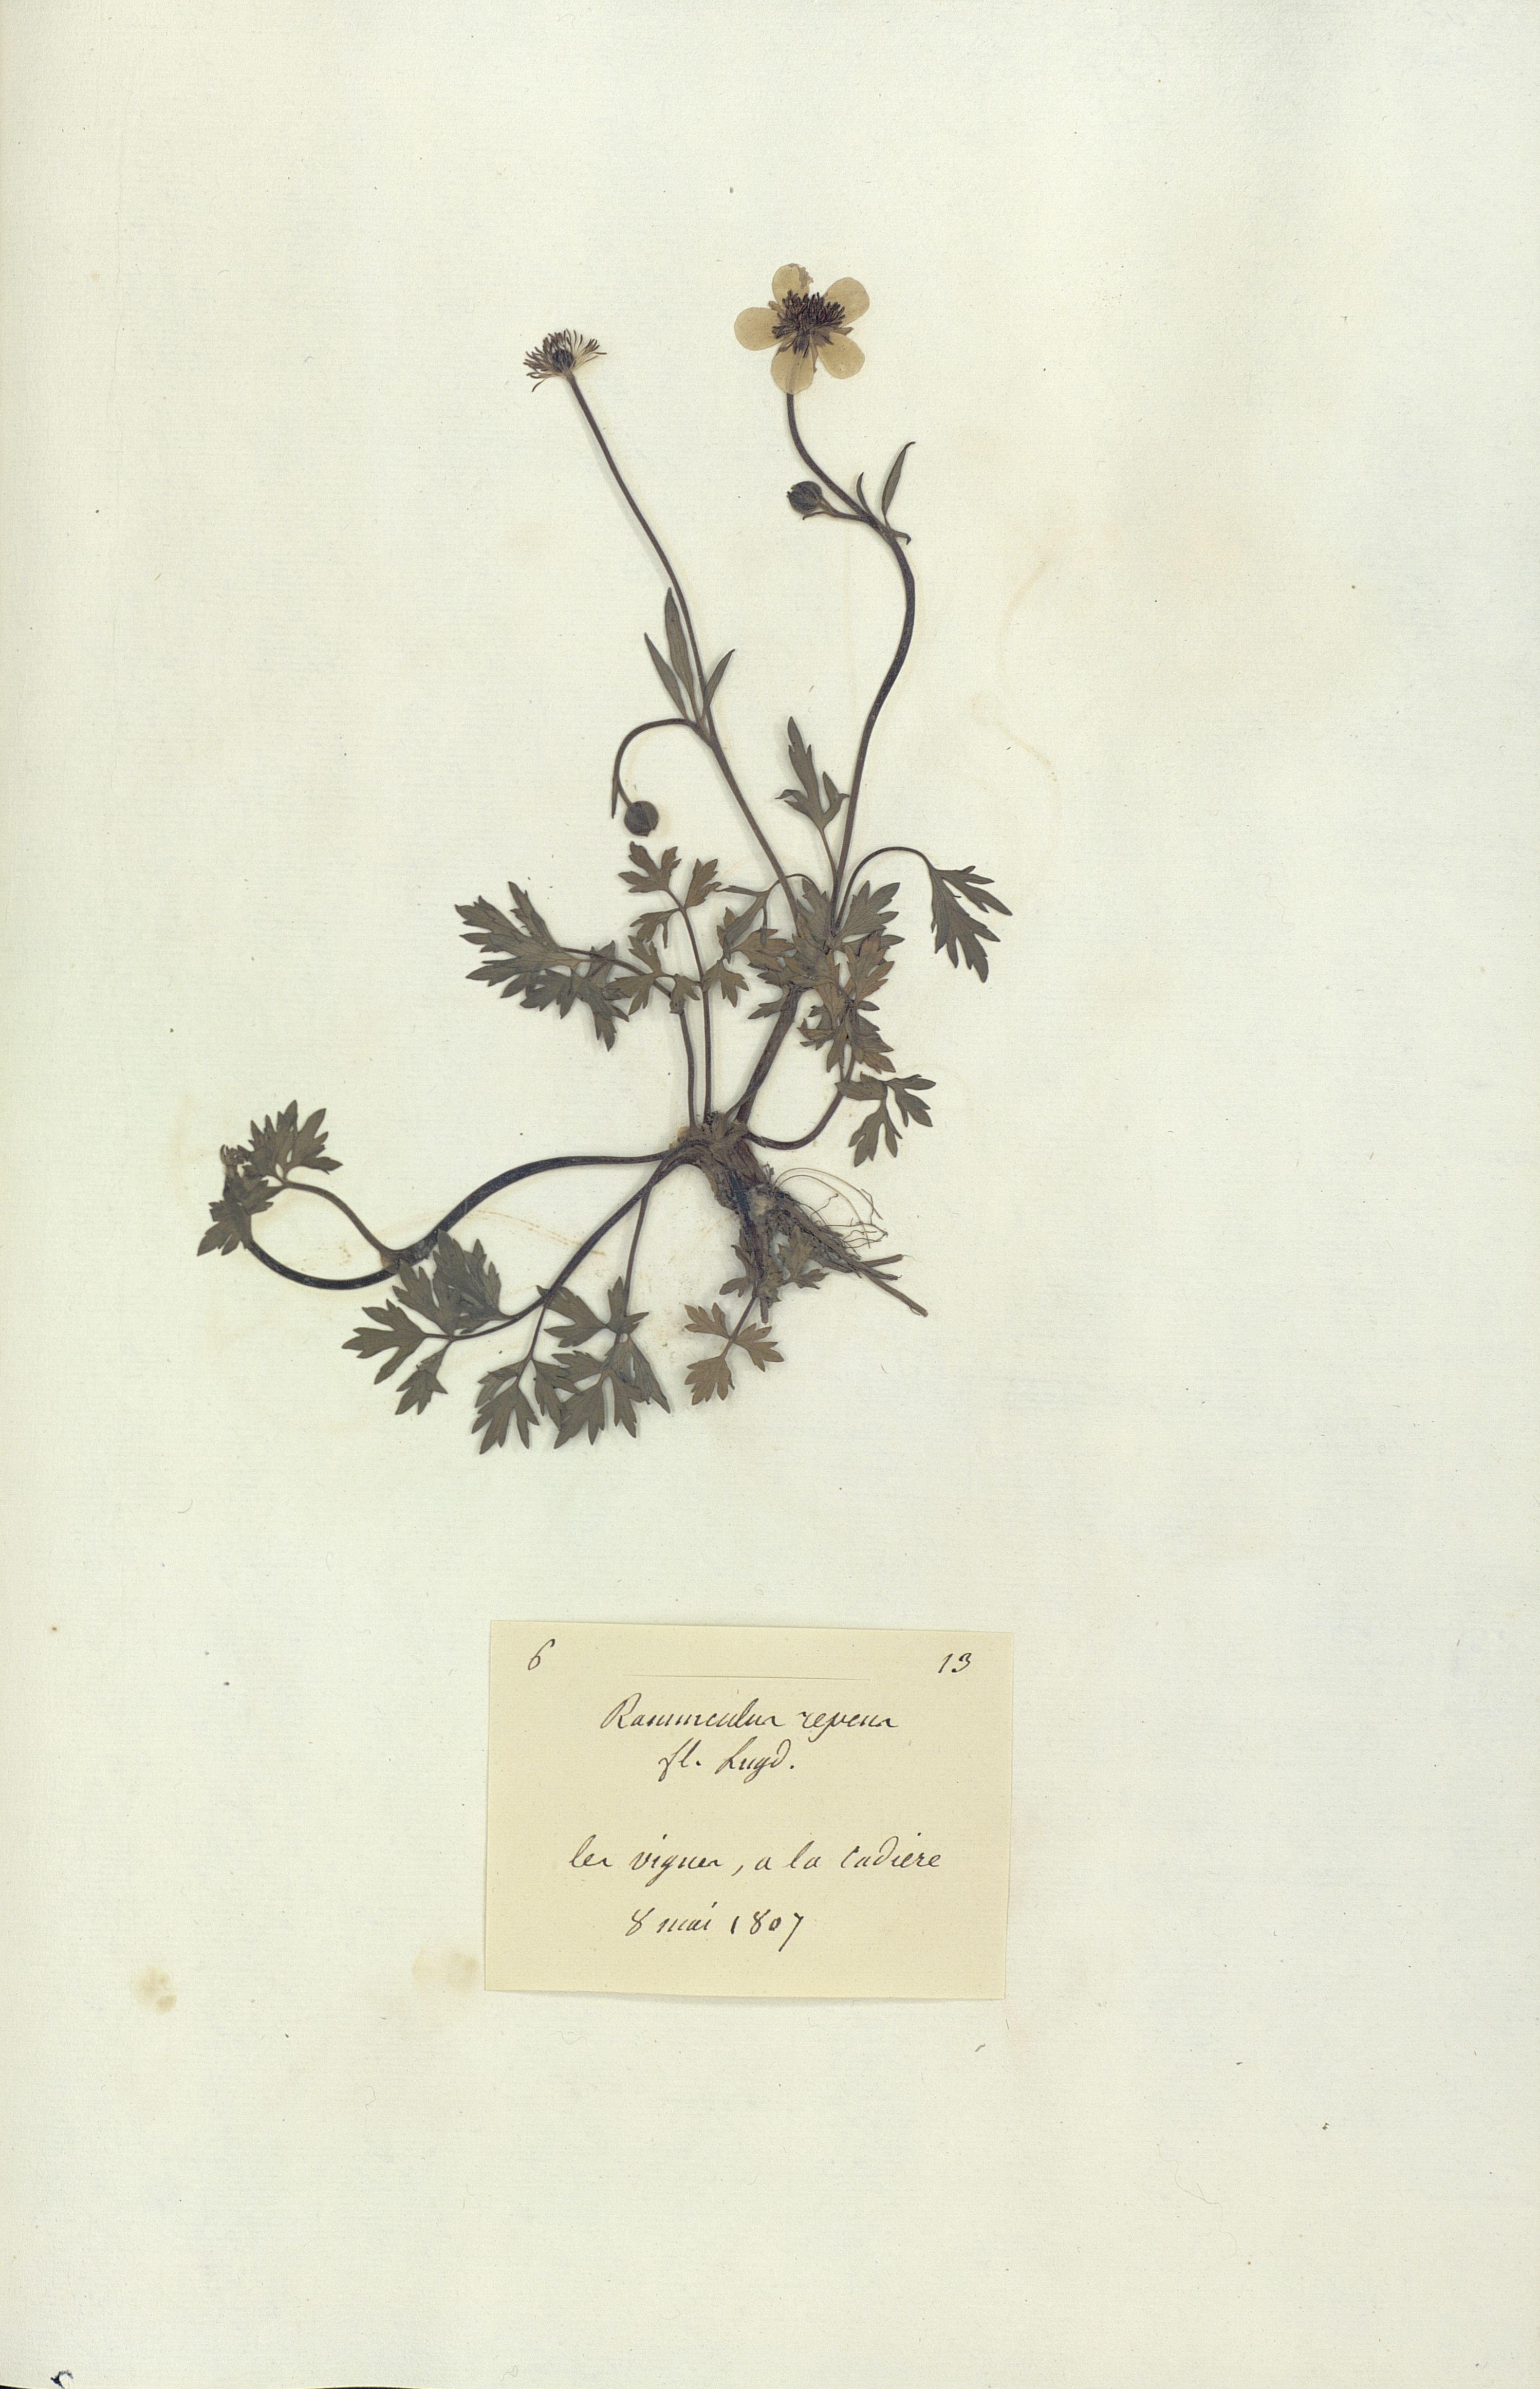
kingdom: Plantae
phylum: Tracheophyta
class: Magnoliopsida
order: Ranunculales
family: Ranunculaceae
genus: Ranunculus
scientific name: Ranunculus repens
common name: Creeping buttercup
